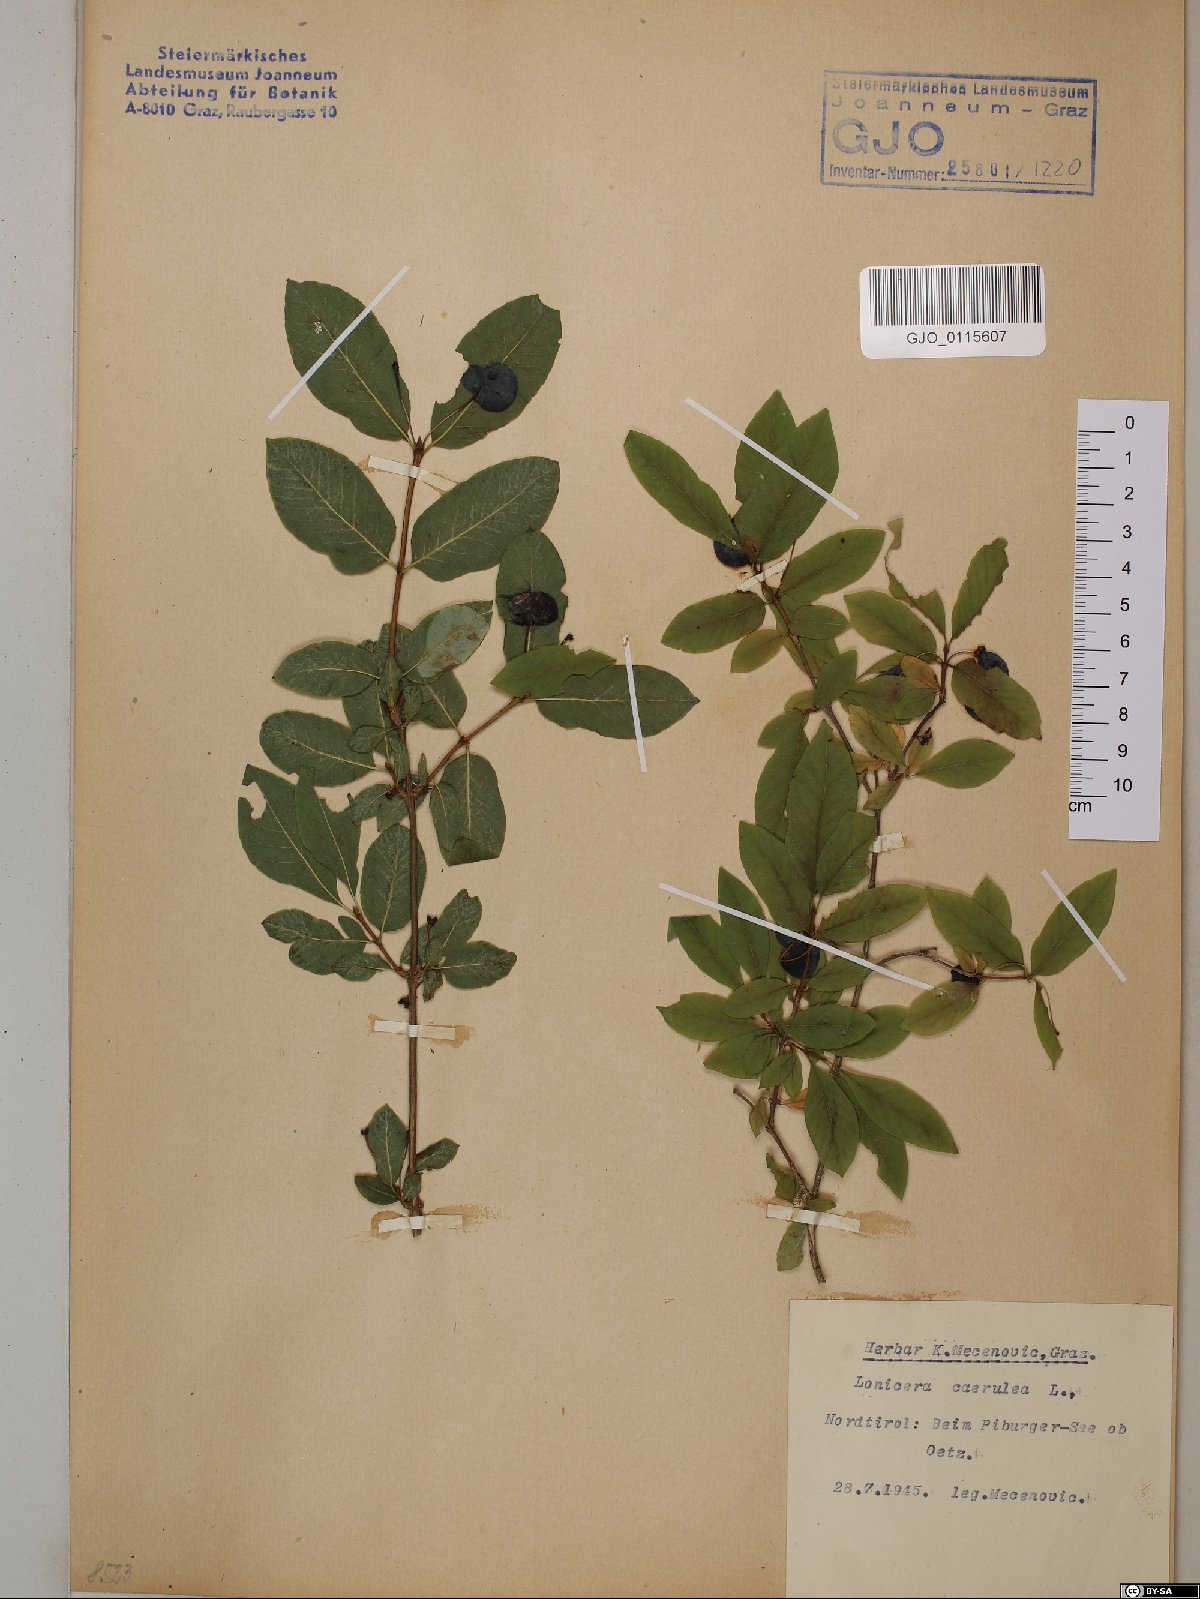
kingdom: Plantae
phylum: Tracheophyta
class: Magnoliopsida
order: Dipsacales
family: Caprifoliaceae
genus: Lonicera
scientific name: Lonicera caerulea
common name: Blue honeysuckle
